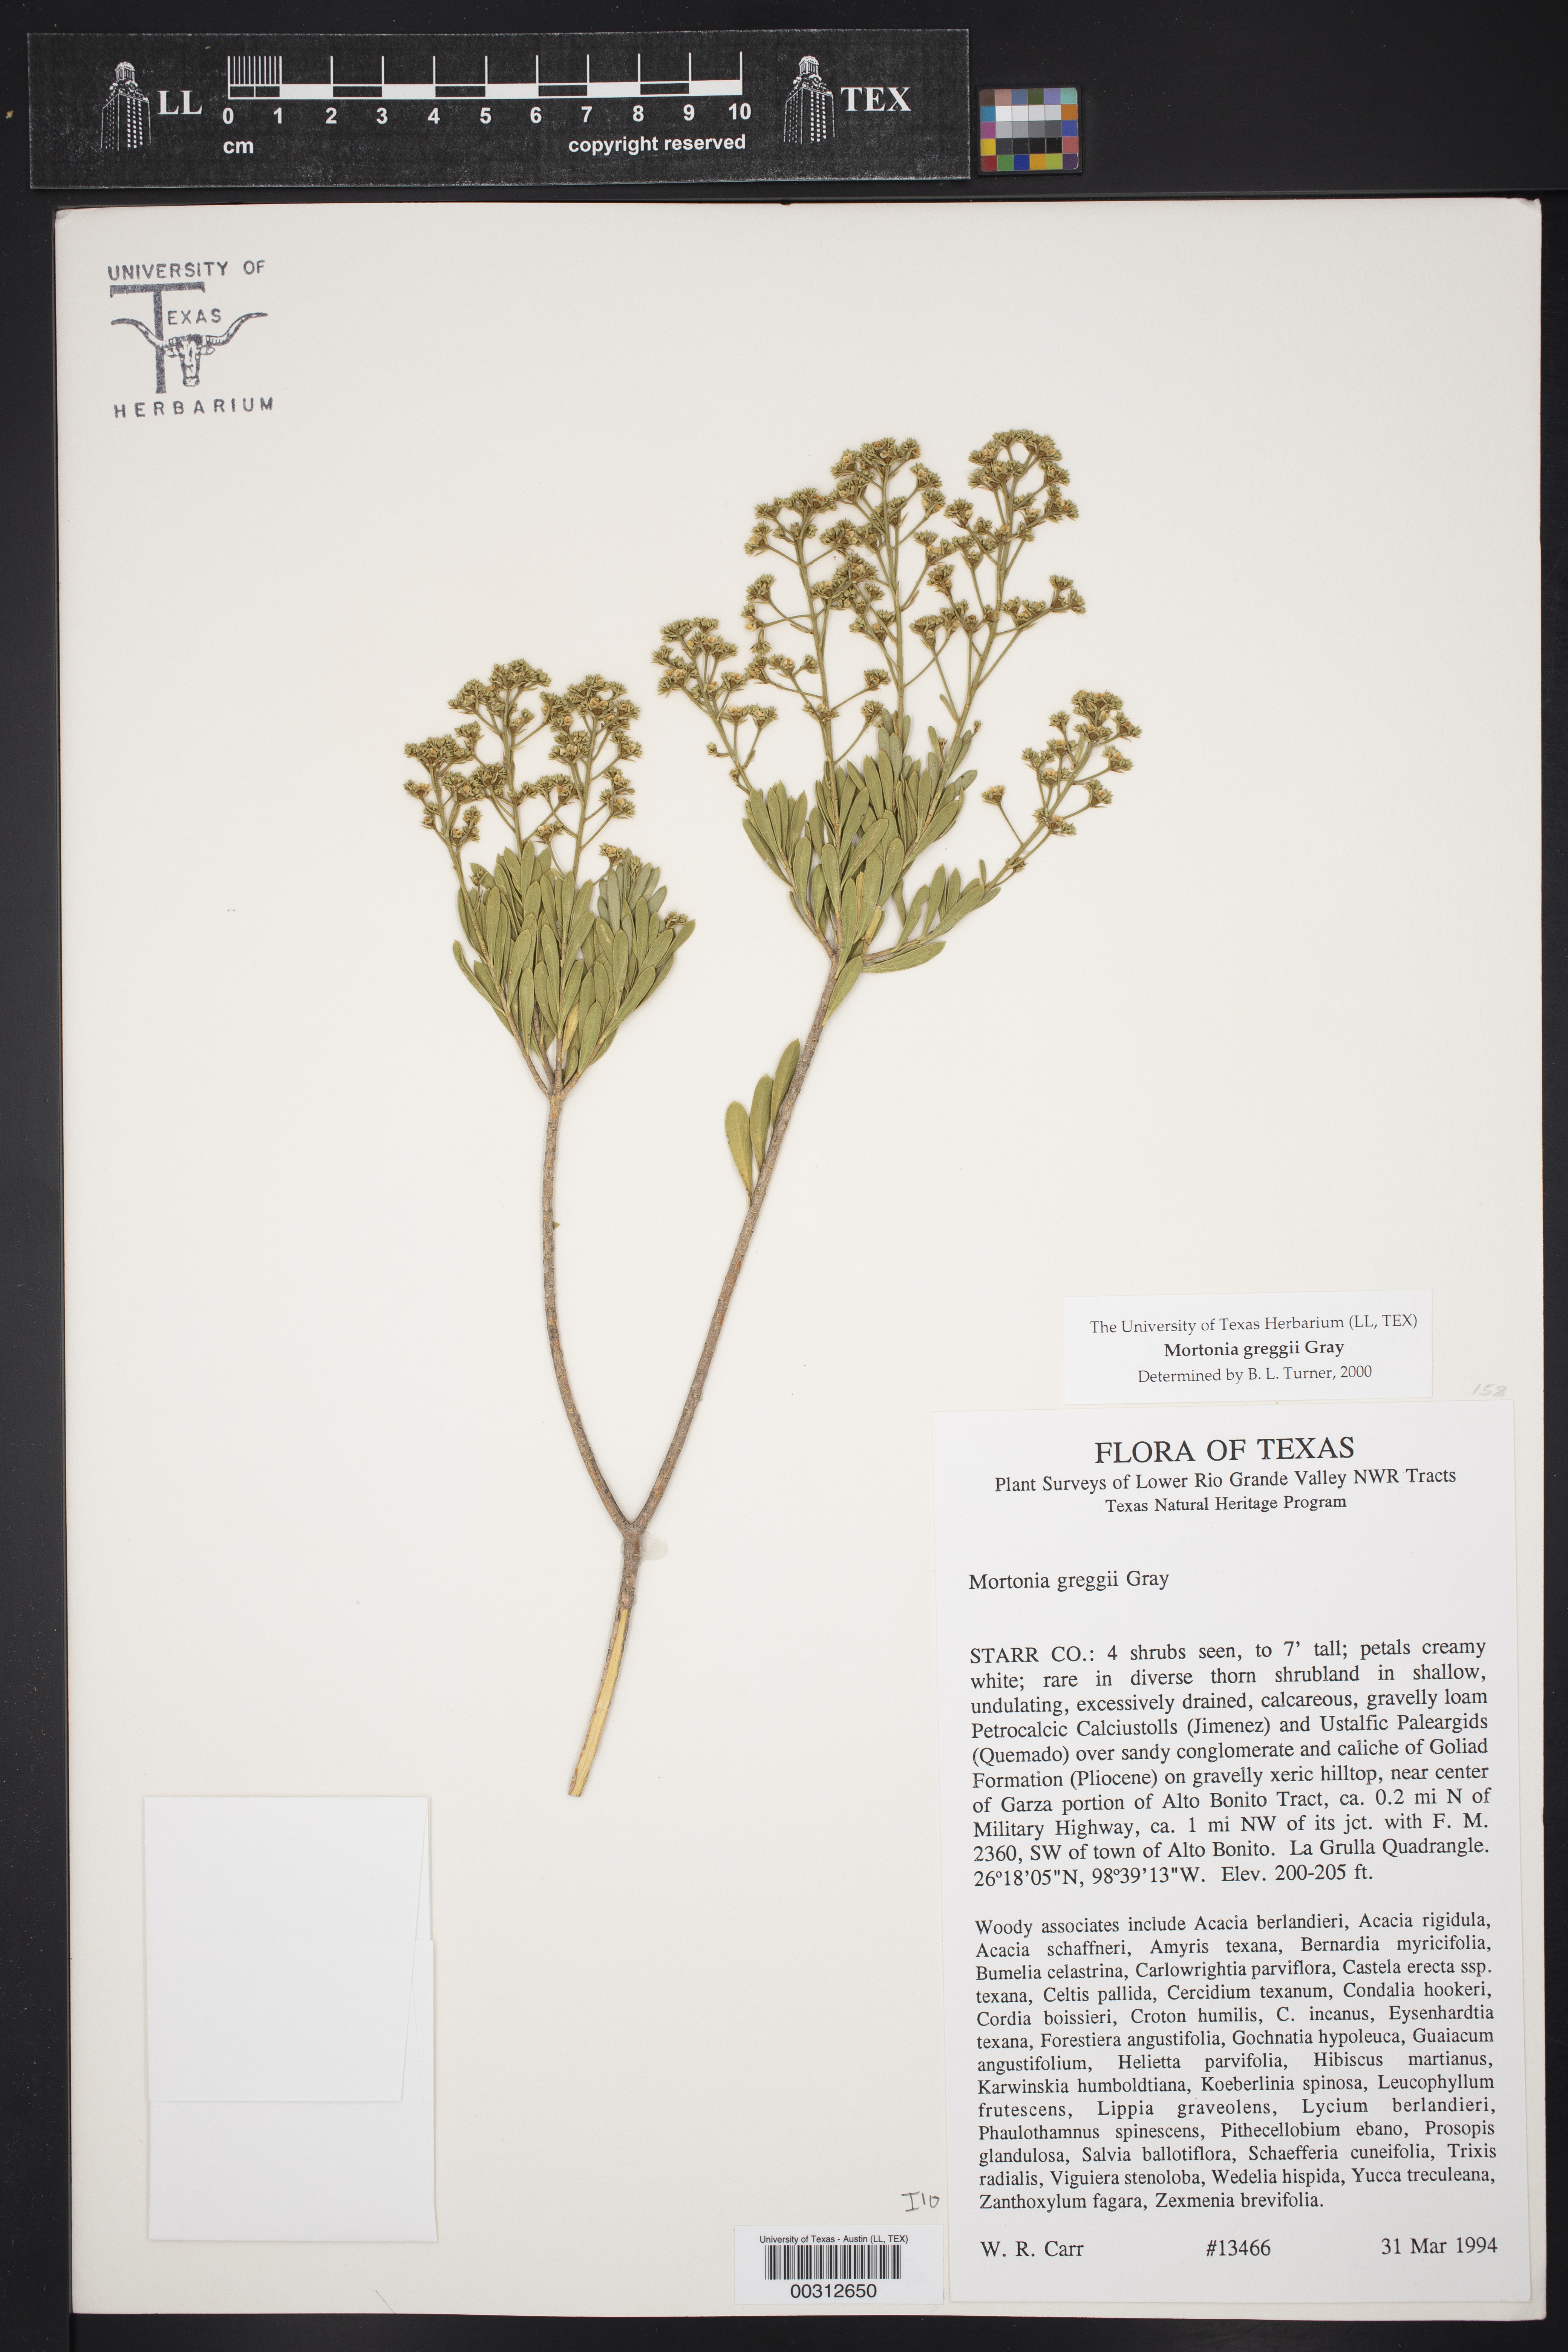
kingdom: Plantae
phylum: Tracheophyta
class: Magnoliopsida
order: Celastrales
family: Celastraceae
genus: Mortonia
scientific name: Mortonia greggii
